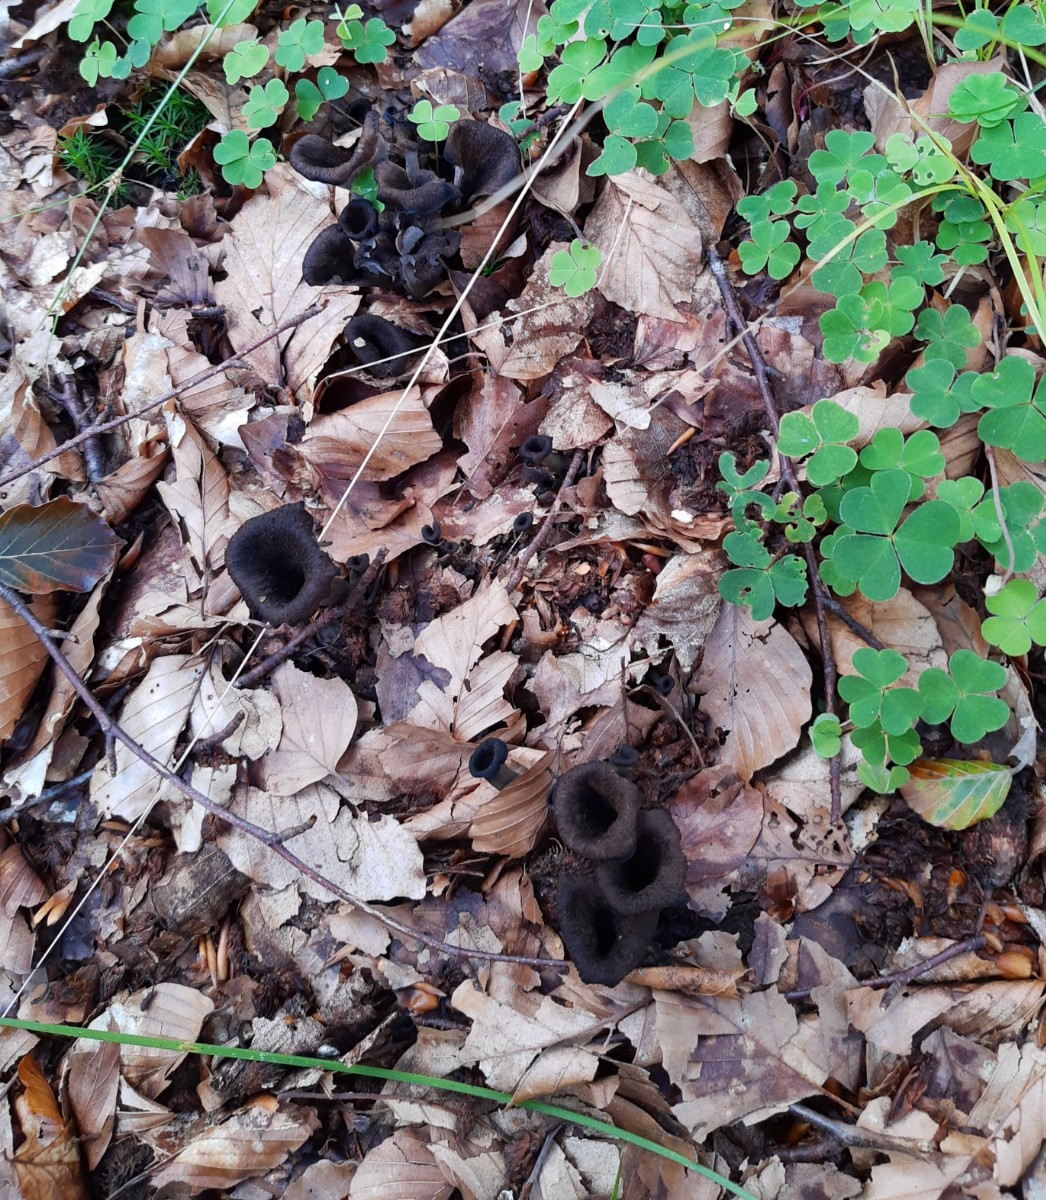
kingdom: Fungi
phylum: Basidiomycota
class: Agaricomycetes
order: Cantharellales
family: Hydnaceae
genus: Craterellus
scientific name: Craterellus cornucopioides
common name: trompetsvamp
